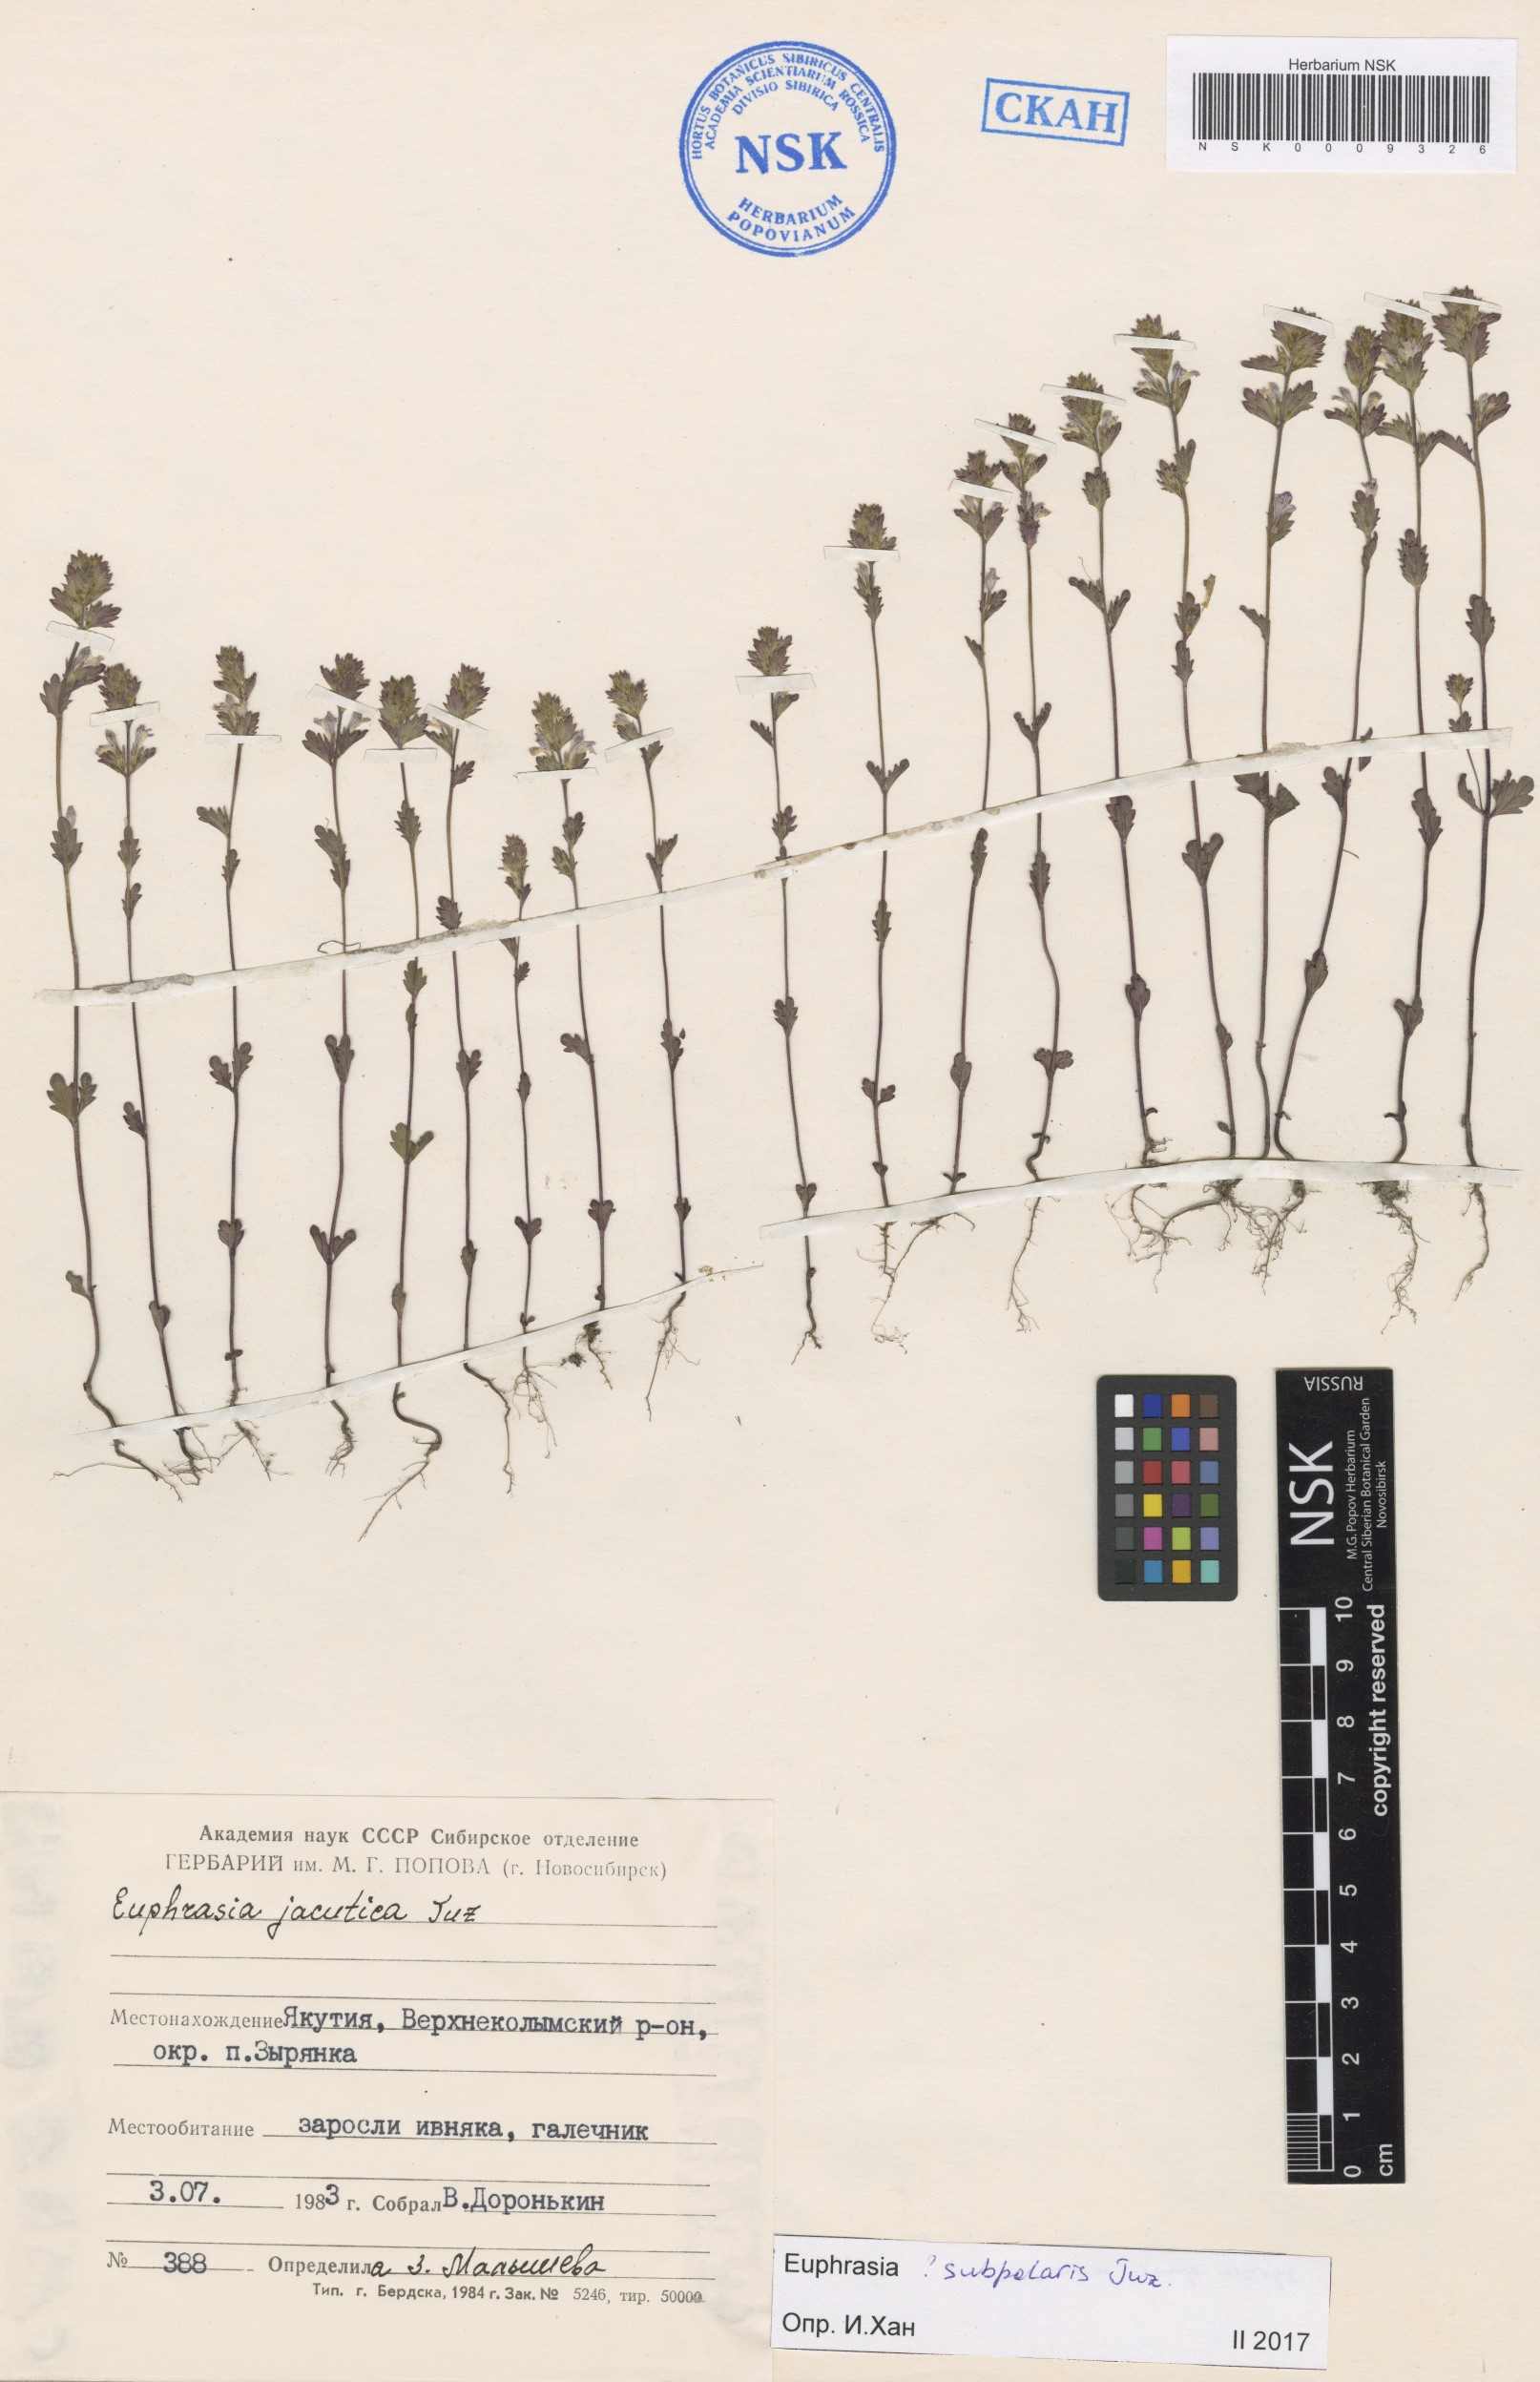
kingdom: Plantae
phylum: Tracheophyta
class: Magnoliopsida
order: Lamiales
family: Orobanchaceae
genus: Euphrasia
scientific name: Euphrasia hyperborea
